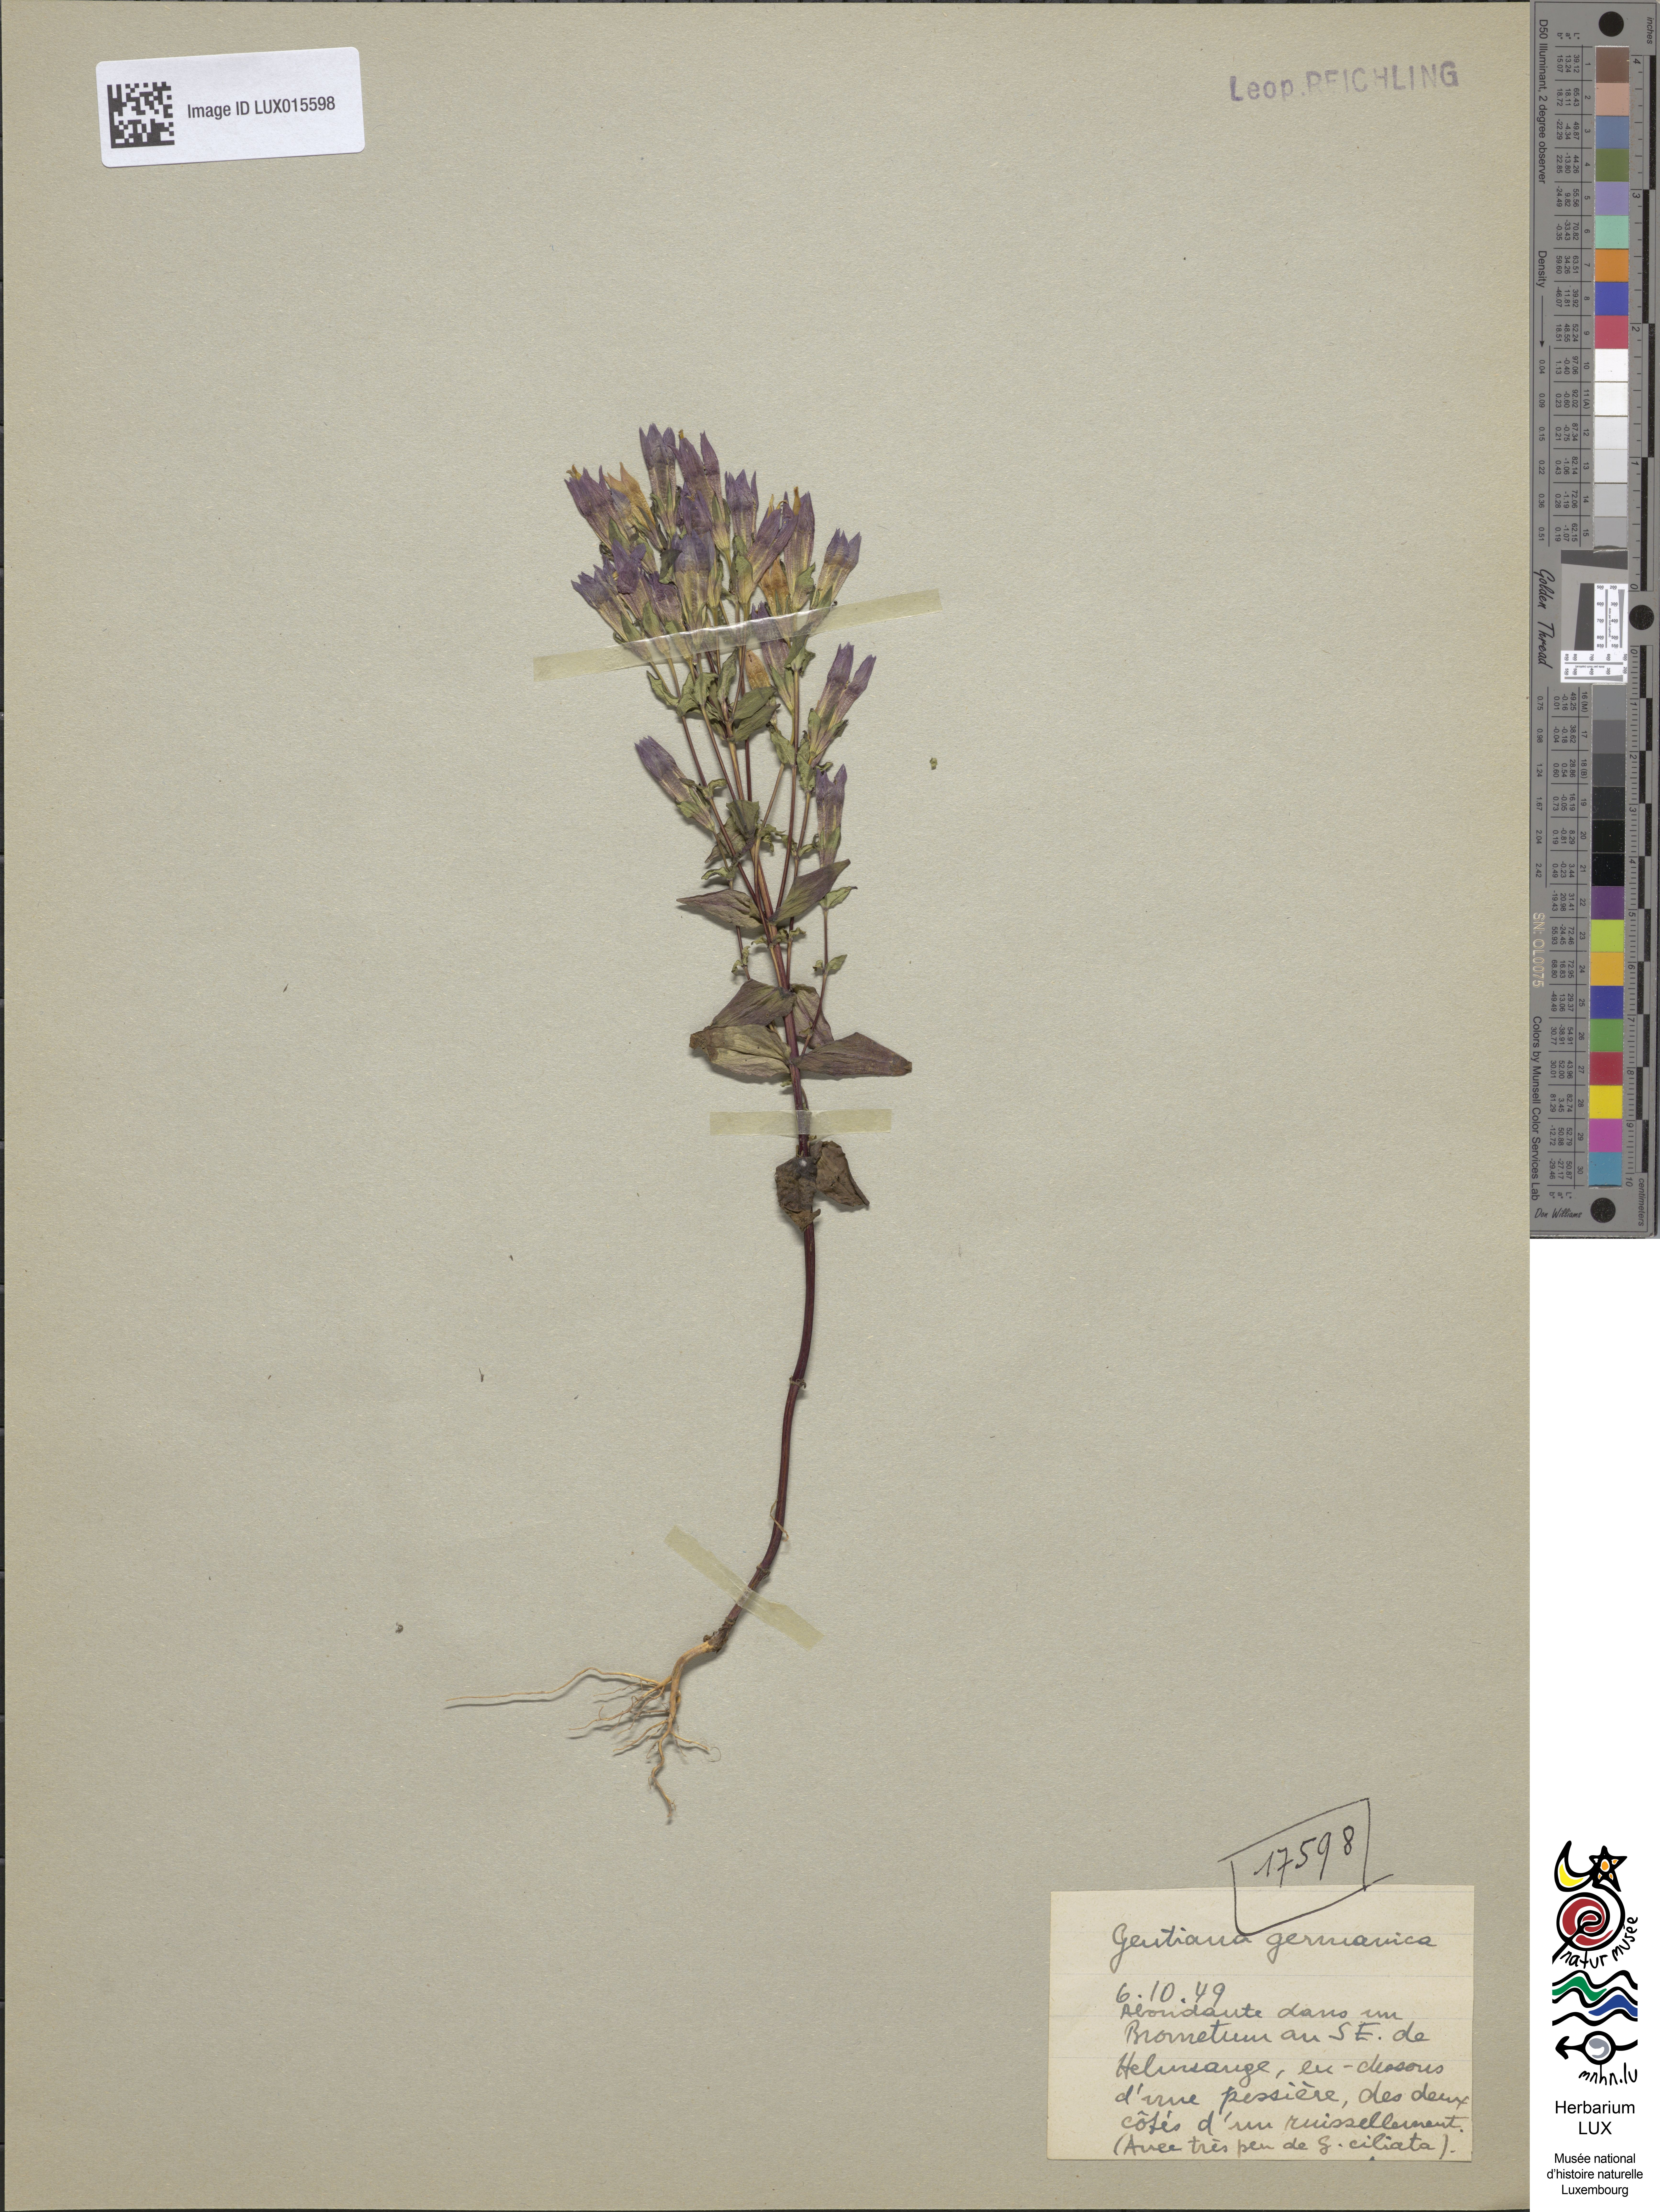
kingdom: Plantae
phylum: Tracheophyta
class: Magnoliopsida
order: Gentianales
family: Gentianaceae
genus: Gentianella
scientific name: Gentianella germanica
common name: Chiltern-gentian
